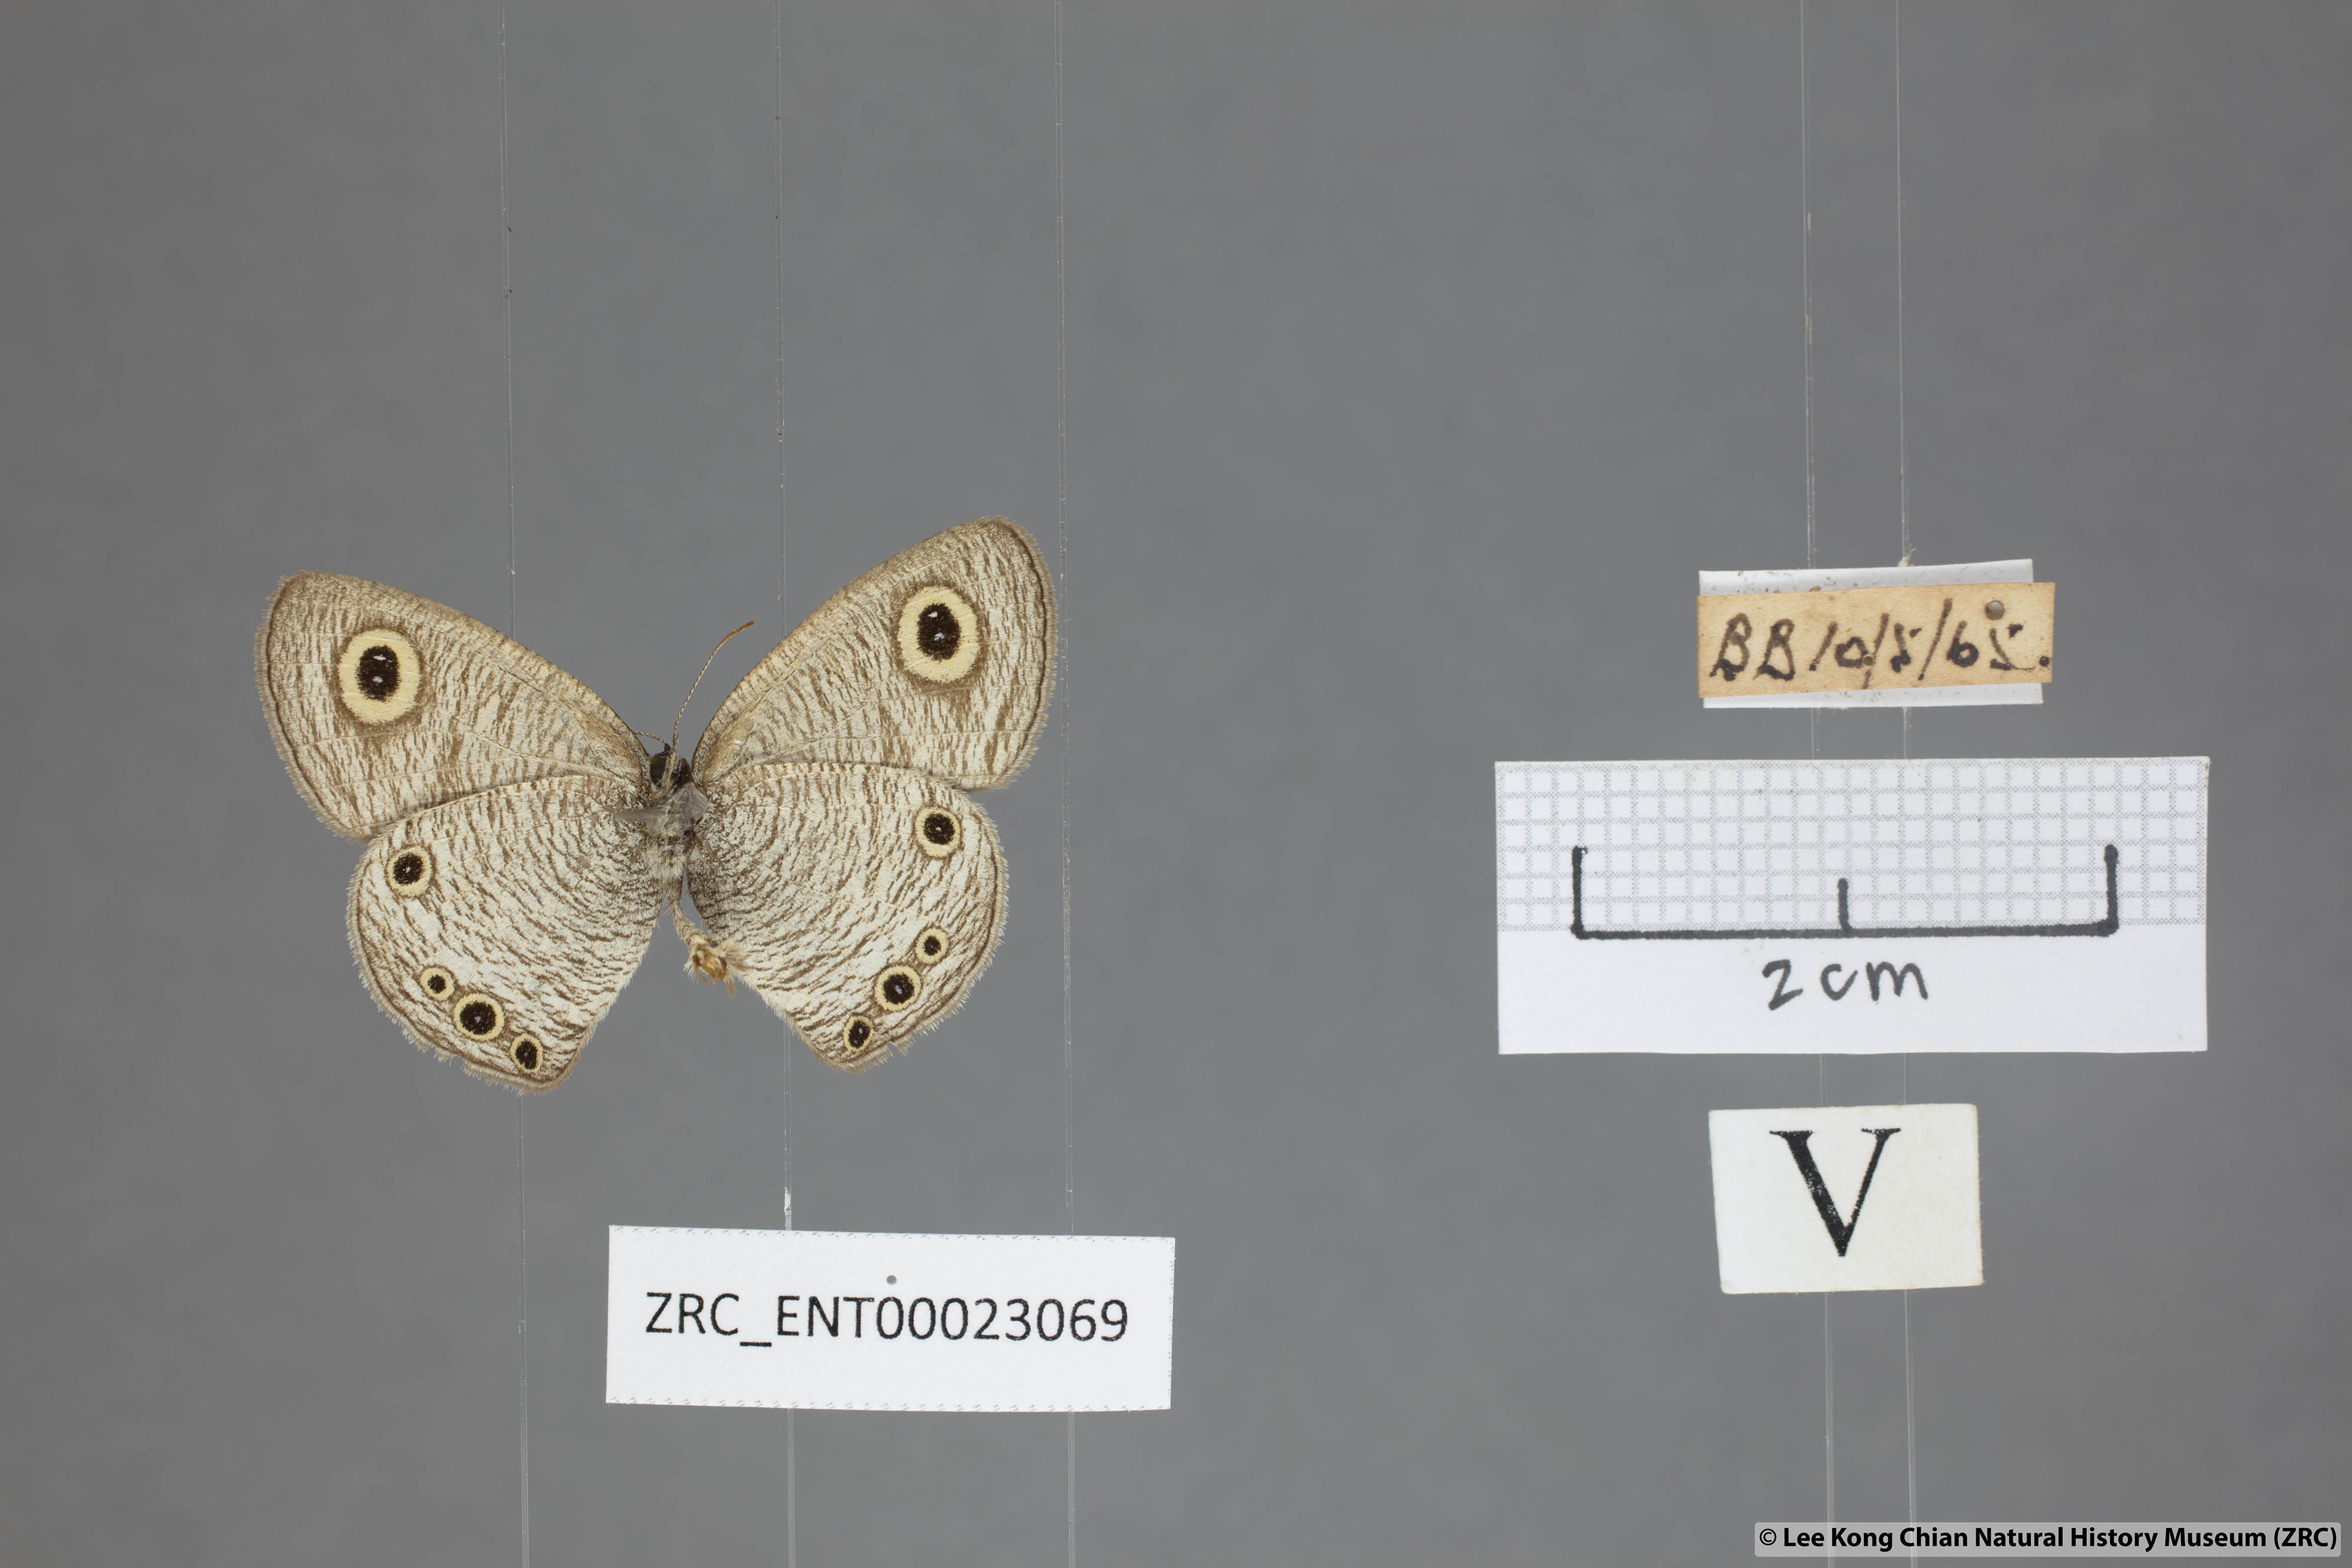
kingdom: Animalia
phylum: Arthropoda
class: Insecta
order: Lepidoptera
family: Nymphalidae
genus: Ypthima
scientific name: Ypthima huebneri
